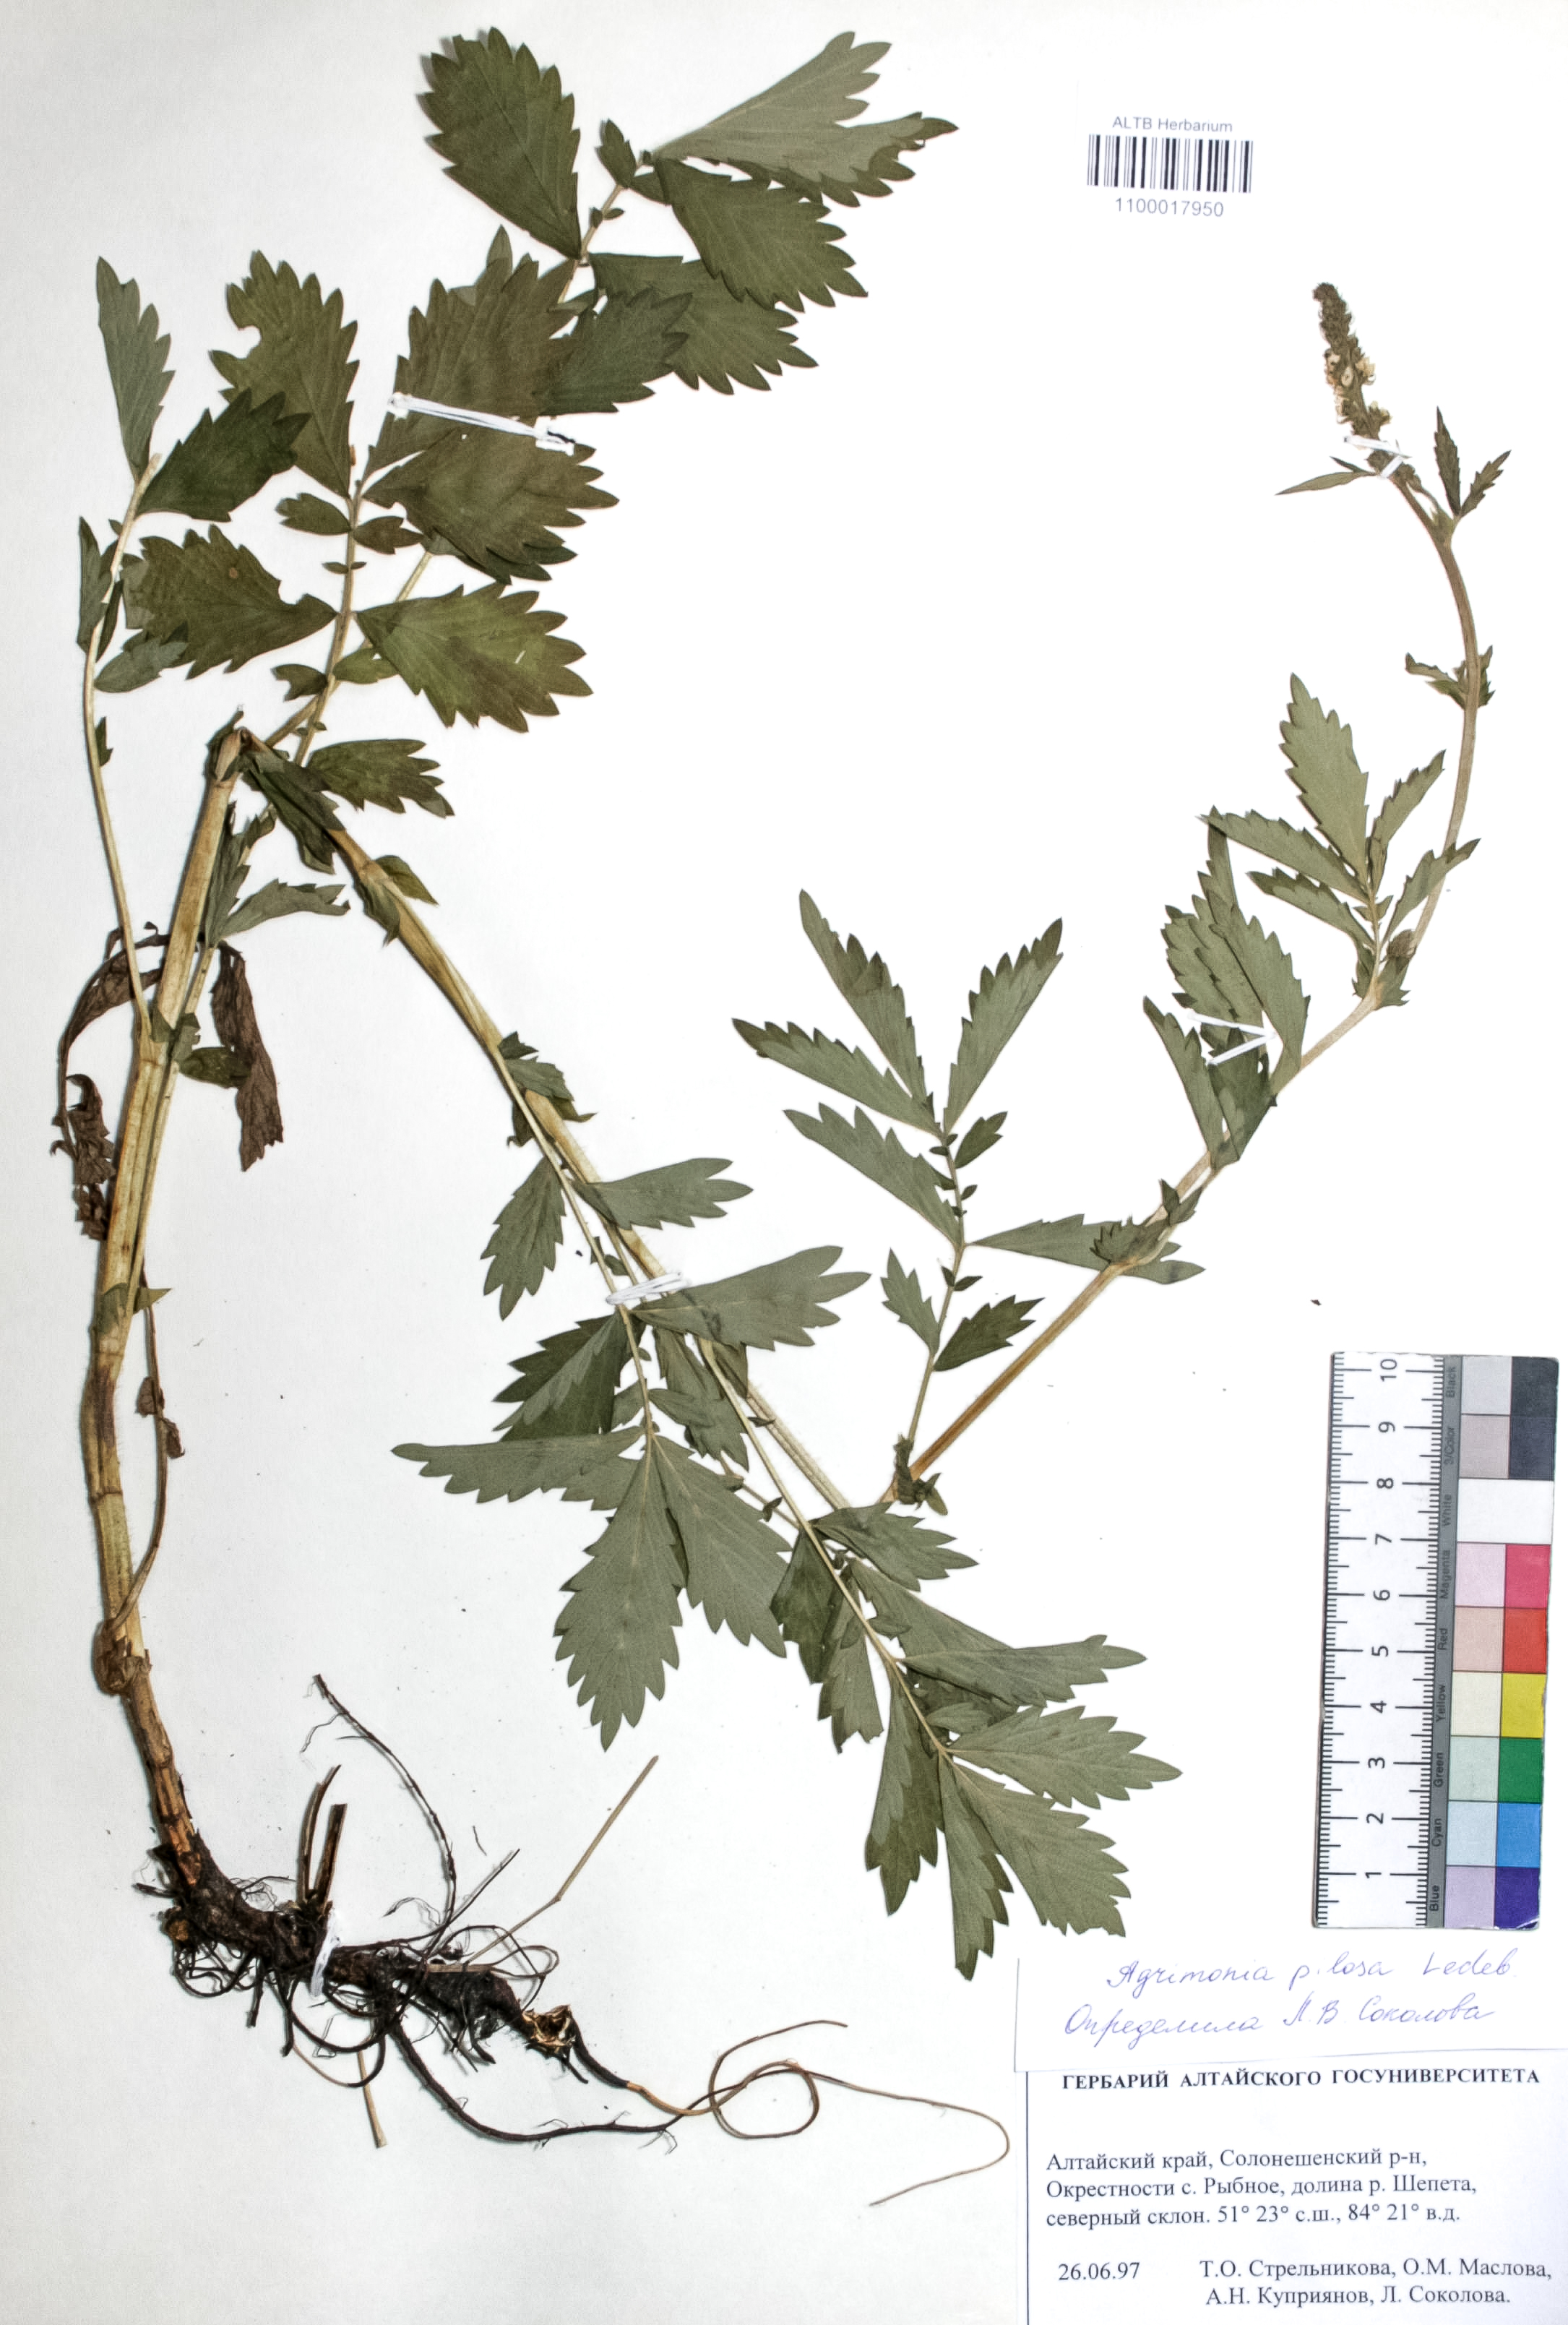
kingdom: Plantae
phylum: Tracheophyta
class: Magnoliopsida
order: Rosales
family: Rosaceae
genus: Agrimonia
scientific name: Agrimonia pilosa
